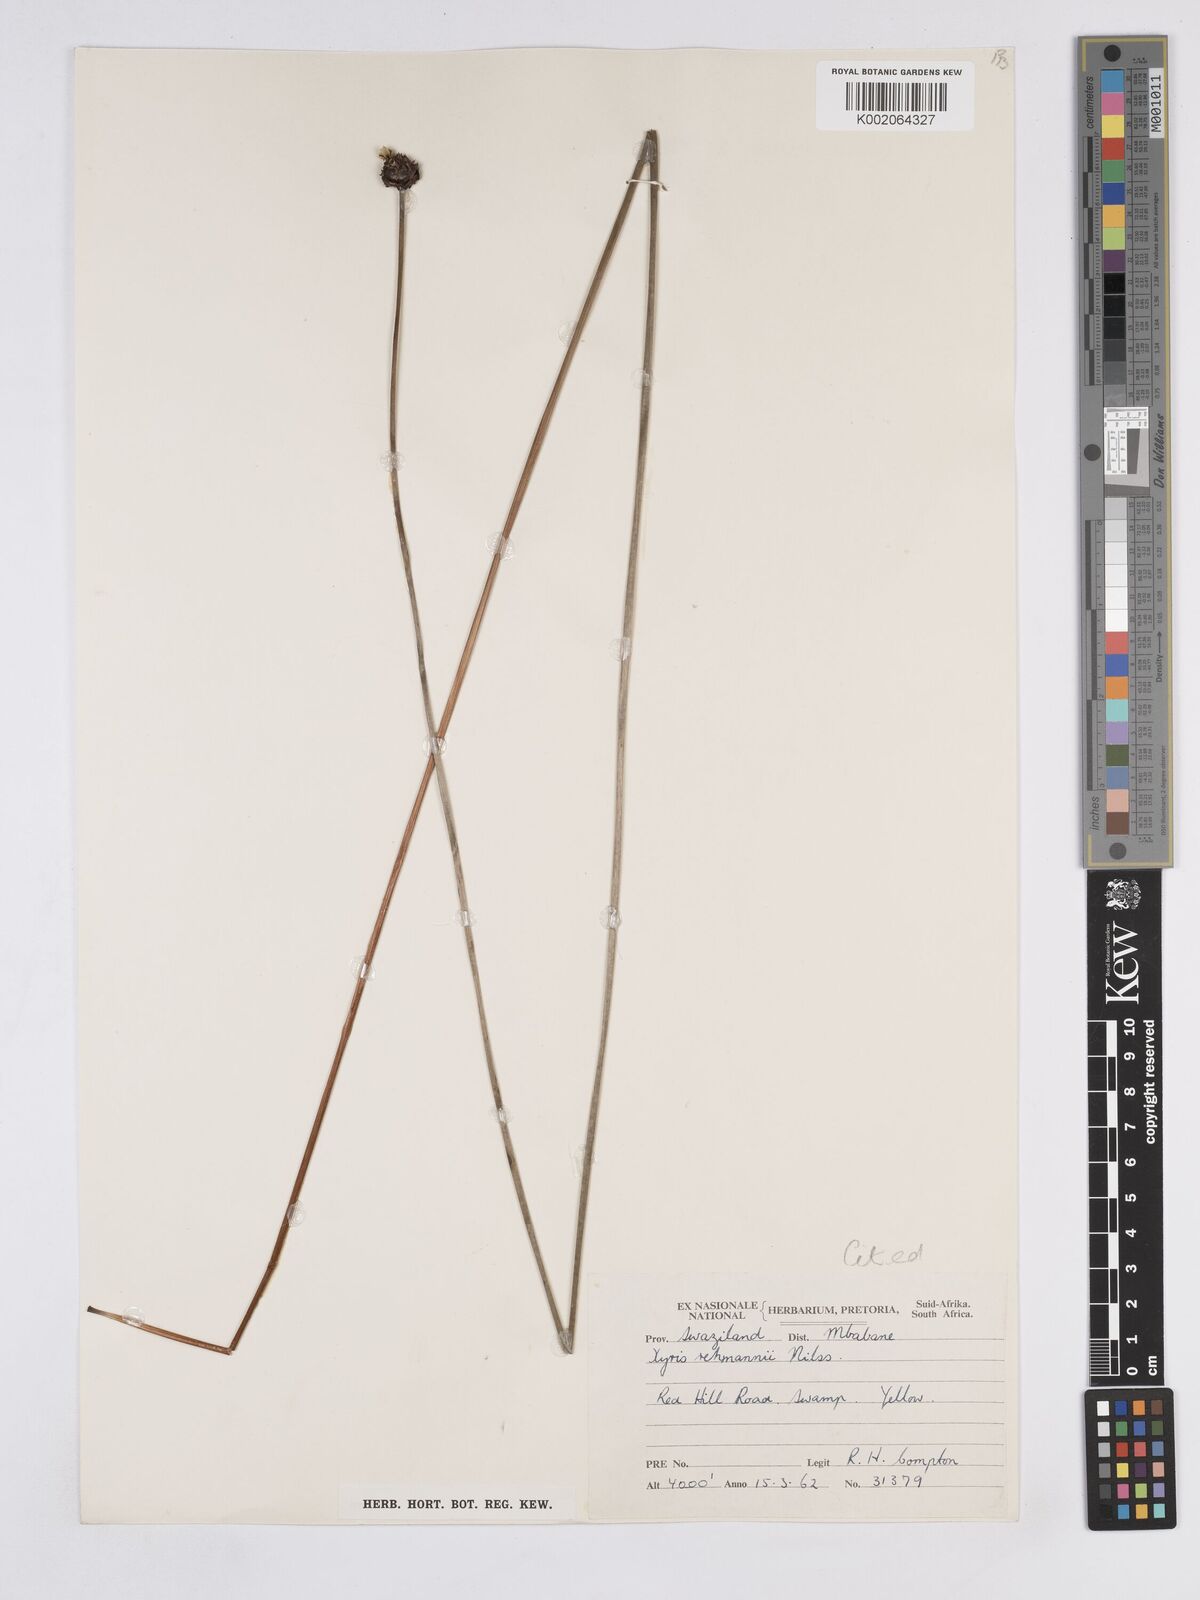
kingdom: Plantae
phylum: Tracheophyta
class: Liliopsida
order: Poales
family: Xyridaceae
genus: Xyris
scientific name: Xyris rehmannii
